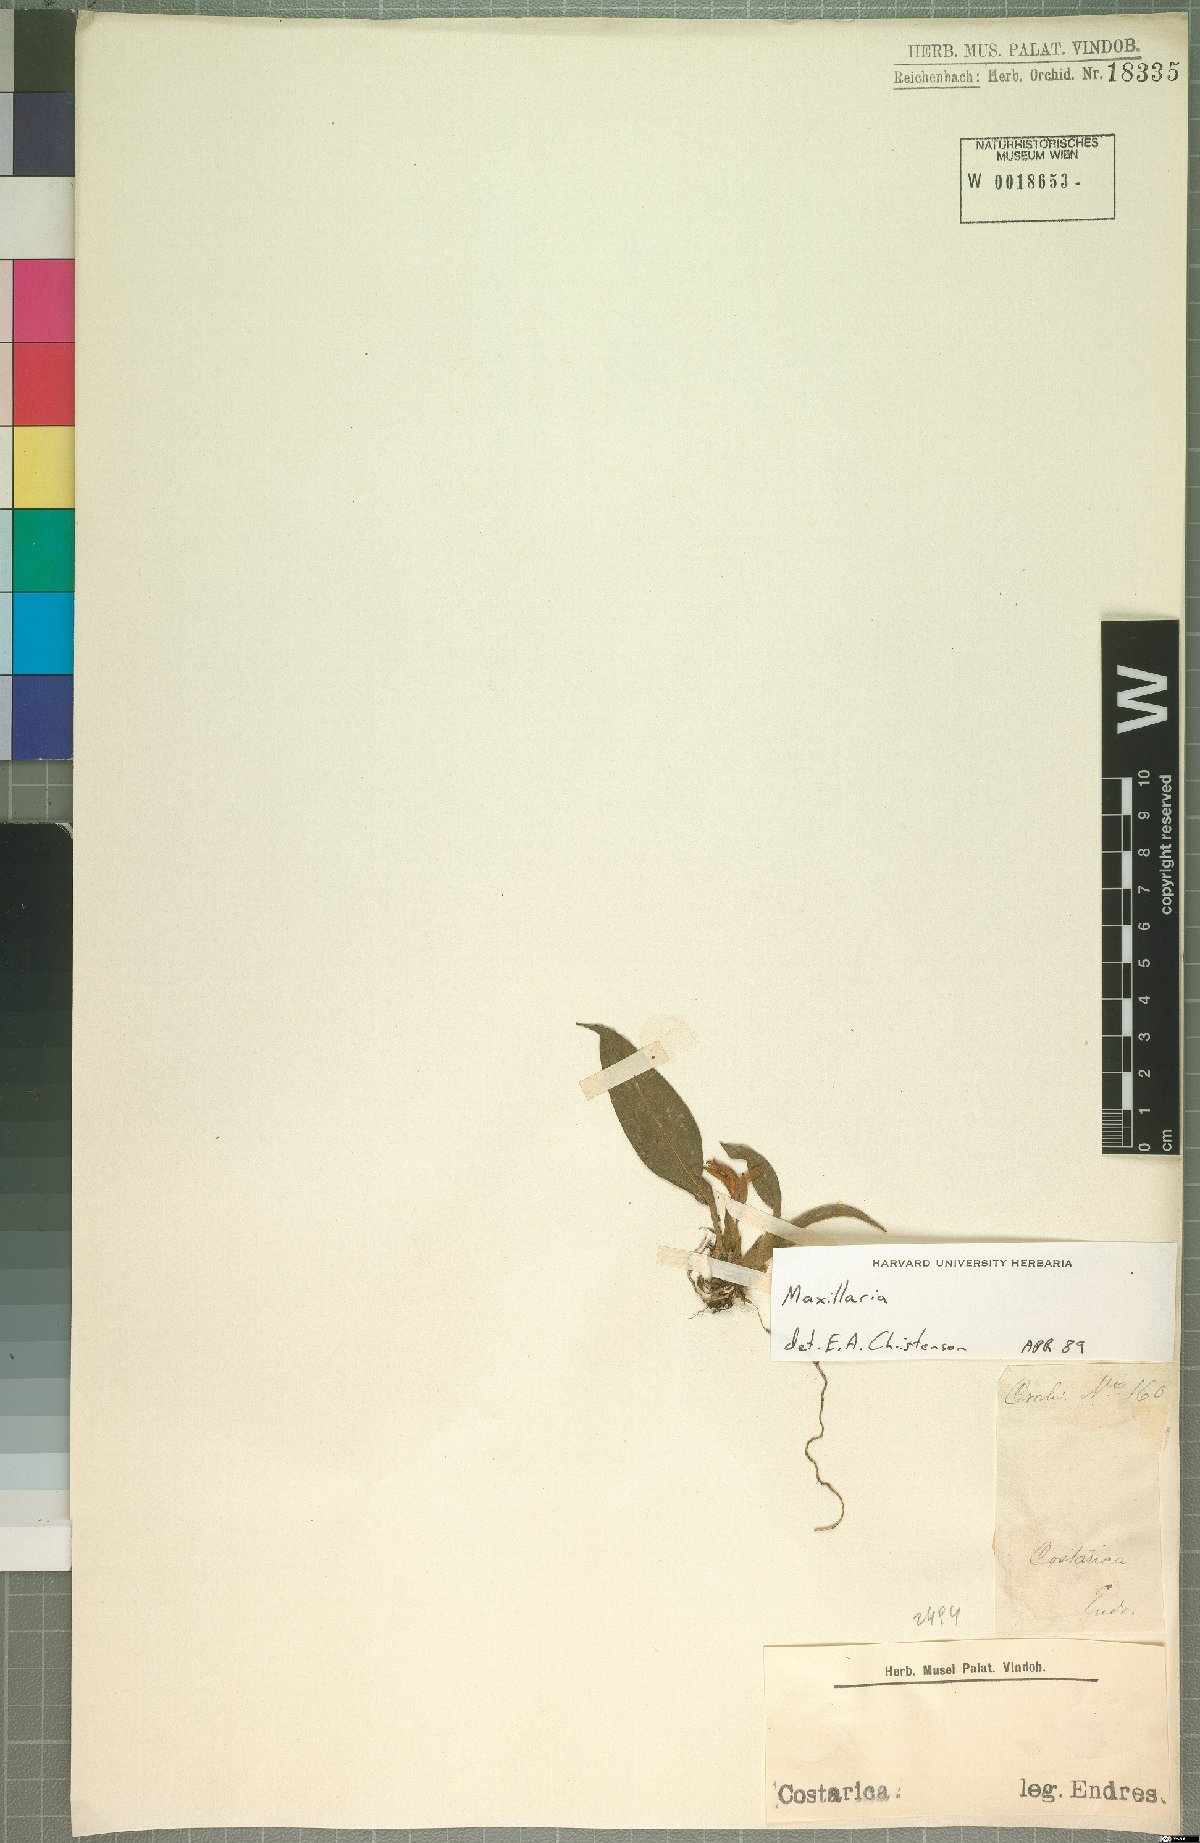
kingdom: Plantae
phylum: Tracheophyta
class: Liliopsida
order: Asparagales
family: Orchidaceae
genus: Maxillaria
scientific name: Maxillaria
